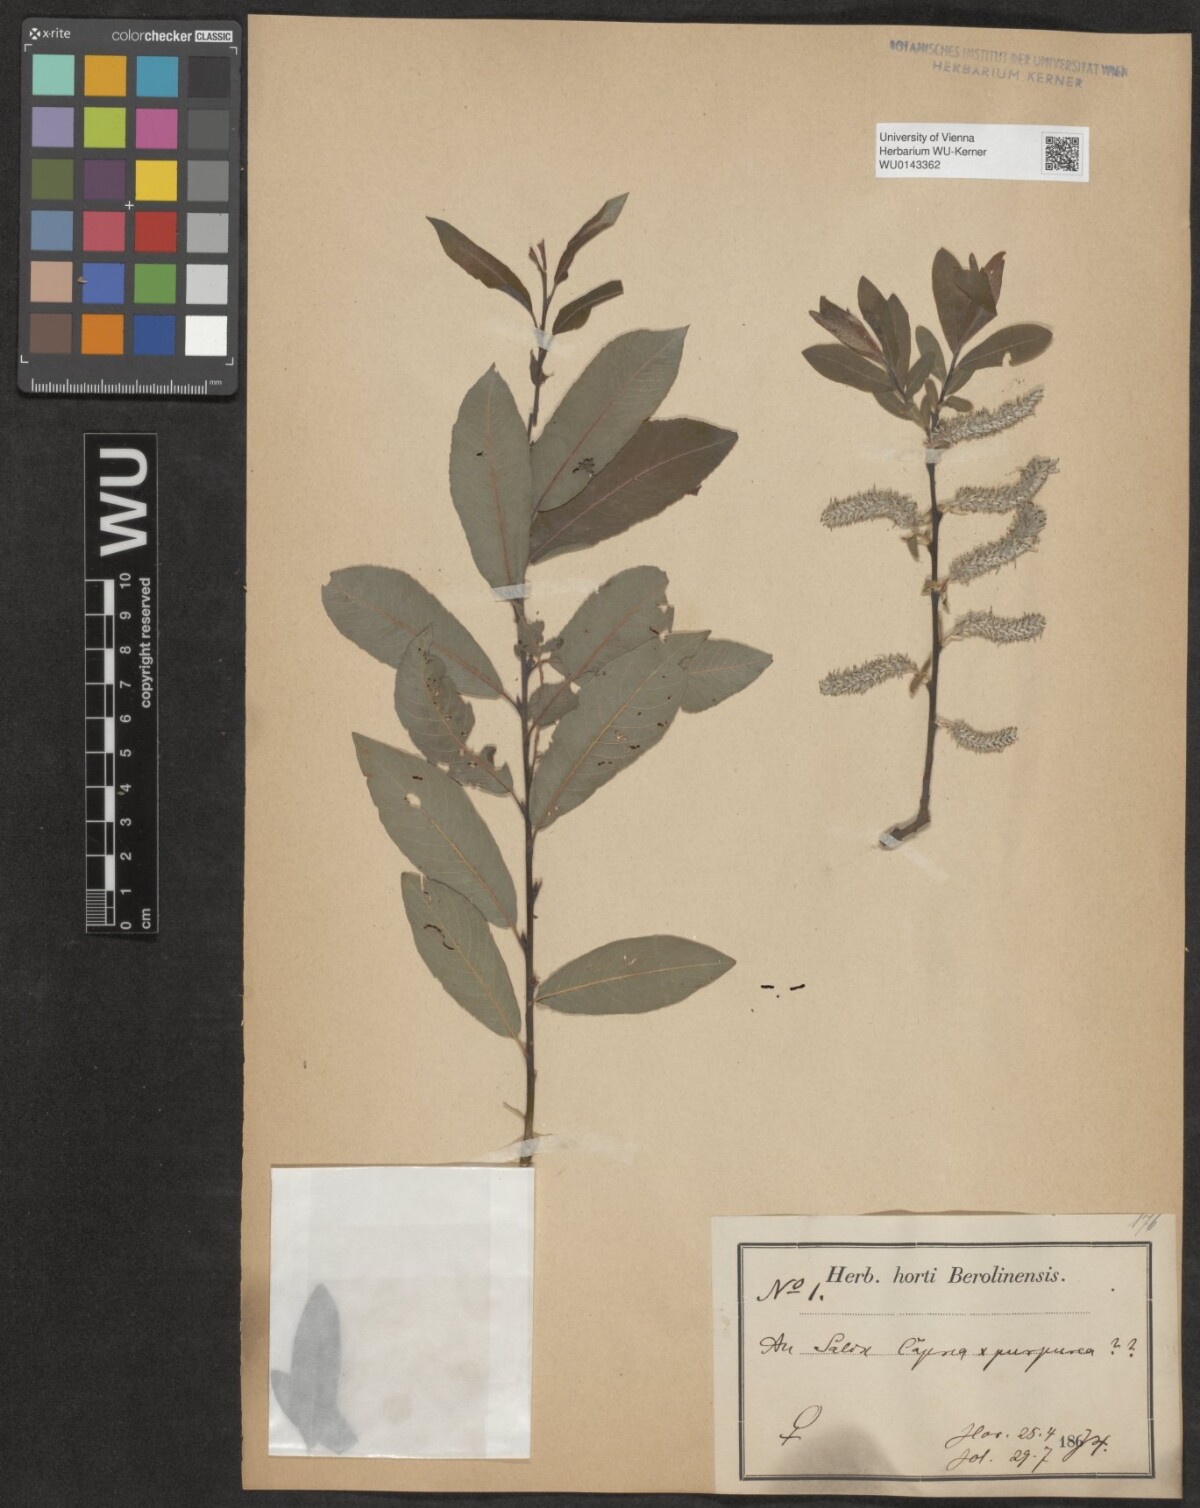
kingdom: Plantae
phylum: Tracheophyta
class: Magnoliopsida
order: Malpighiales
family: Salicaceae
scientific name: Salicaceae
